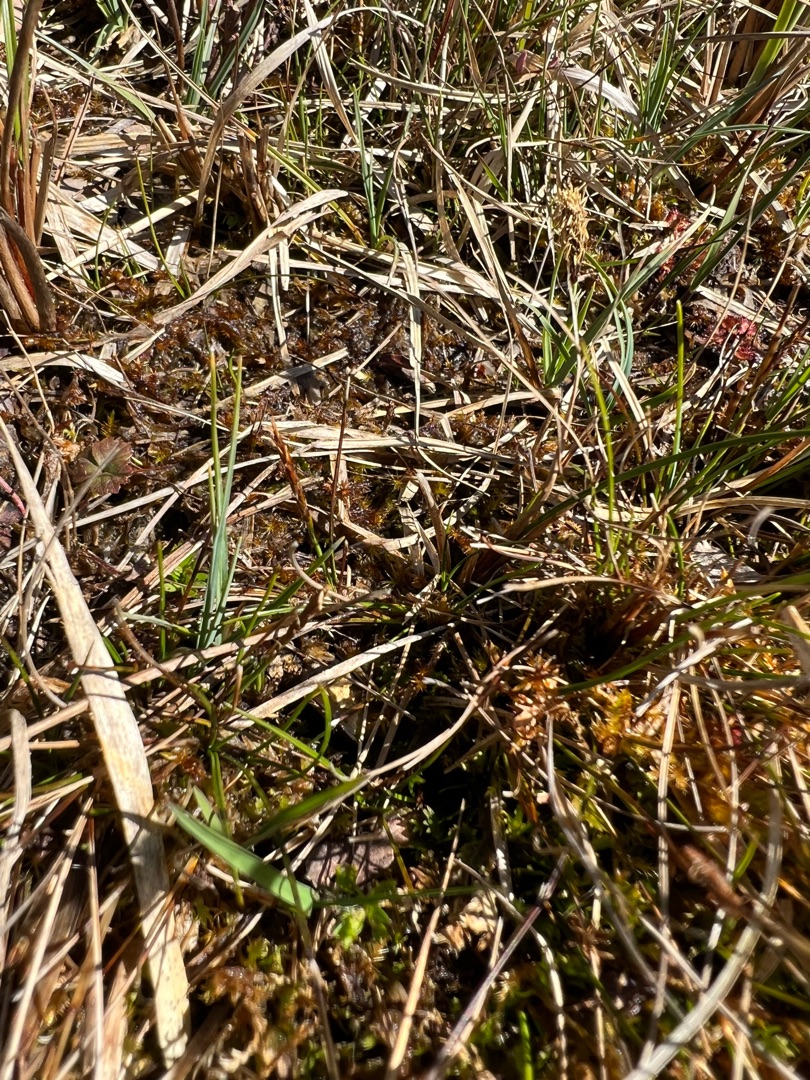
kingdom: Plantae
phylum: Tracheophyta
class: Liliopsida
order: Poales
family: Cyperaceae
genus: Carex
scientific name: Carex pulicaris
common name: Loppe-star
